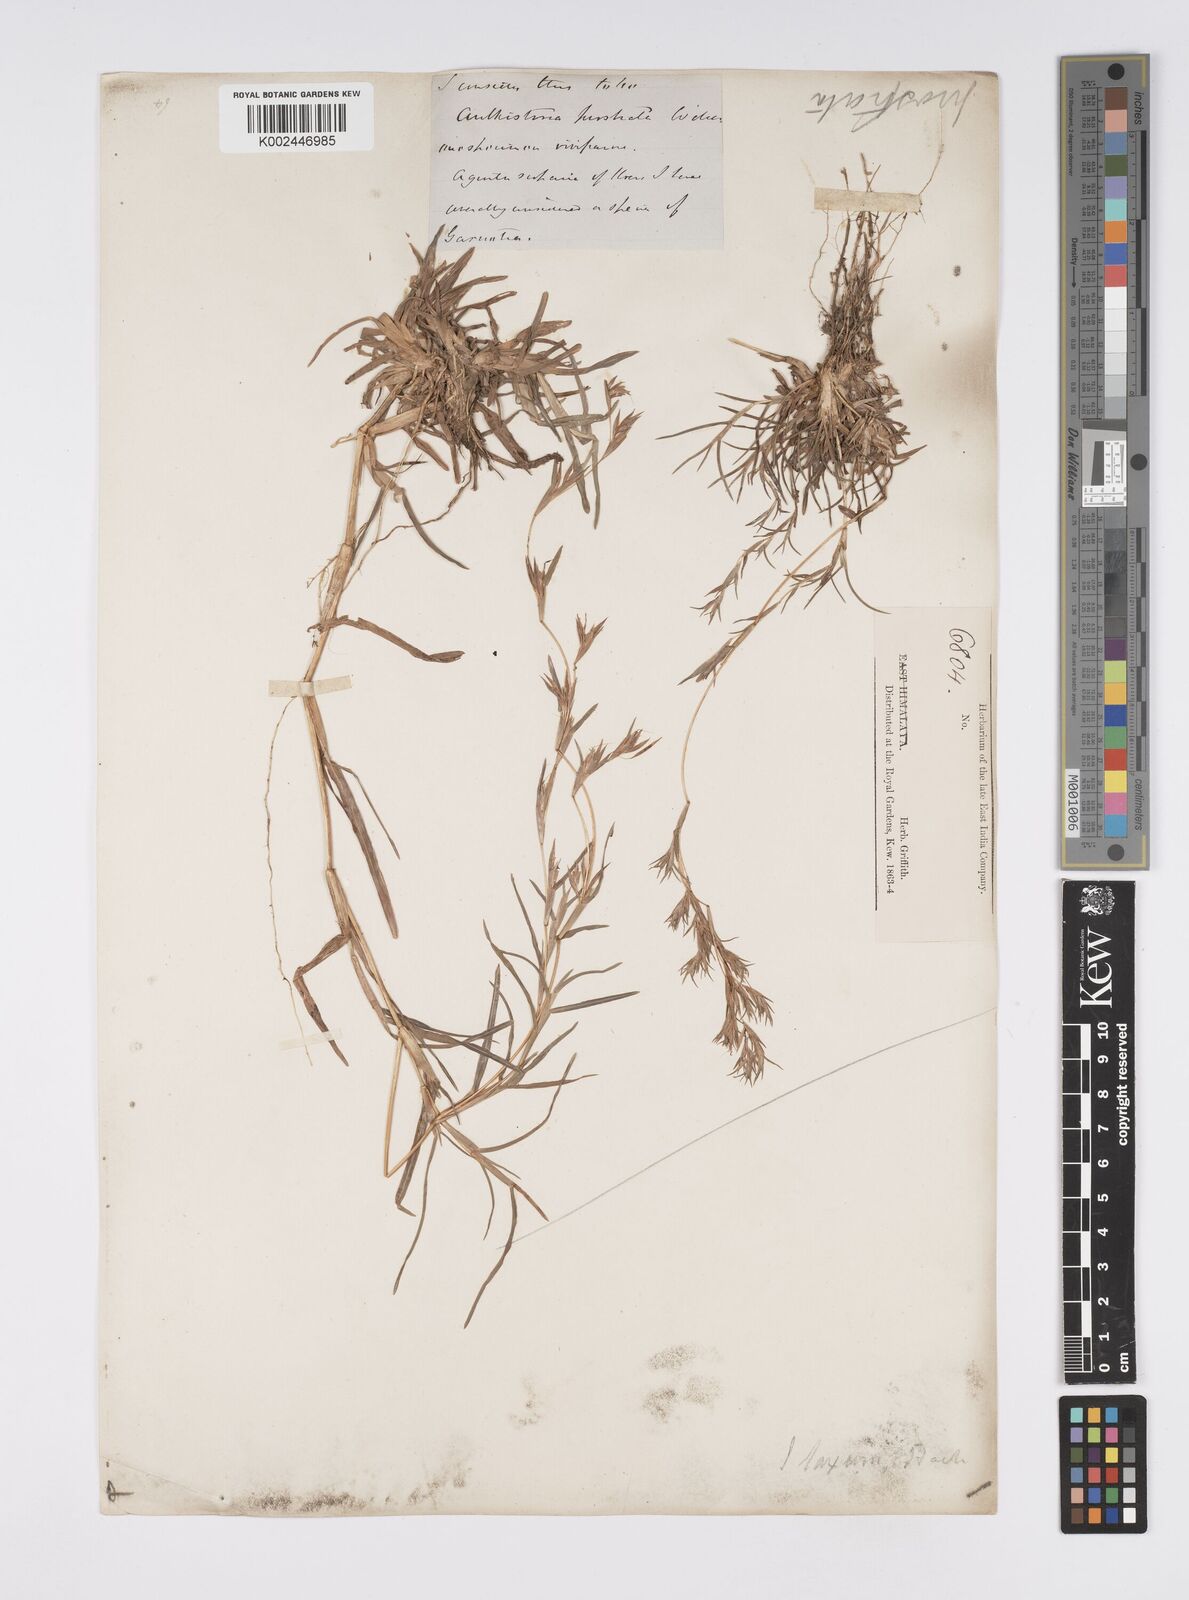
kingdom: Plantae
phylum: Tracheophyta
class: Liliopsida
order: Poales
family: Poaceae
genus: Iseilema
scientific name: Iseilema prostratum
